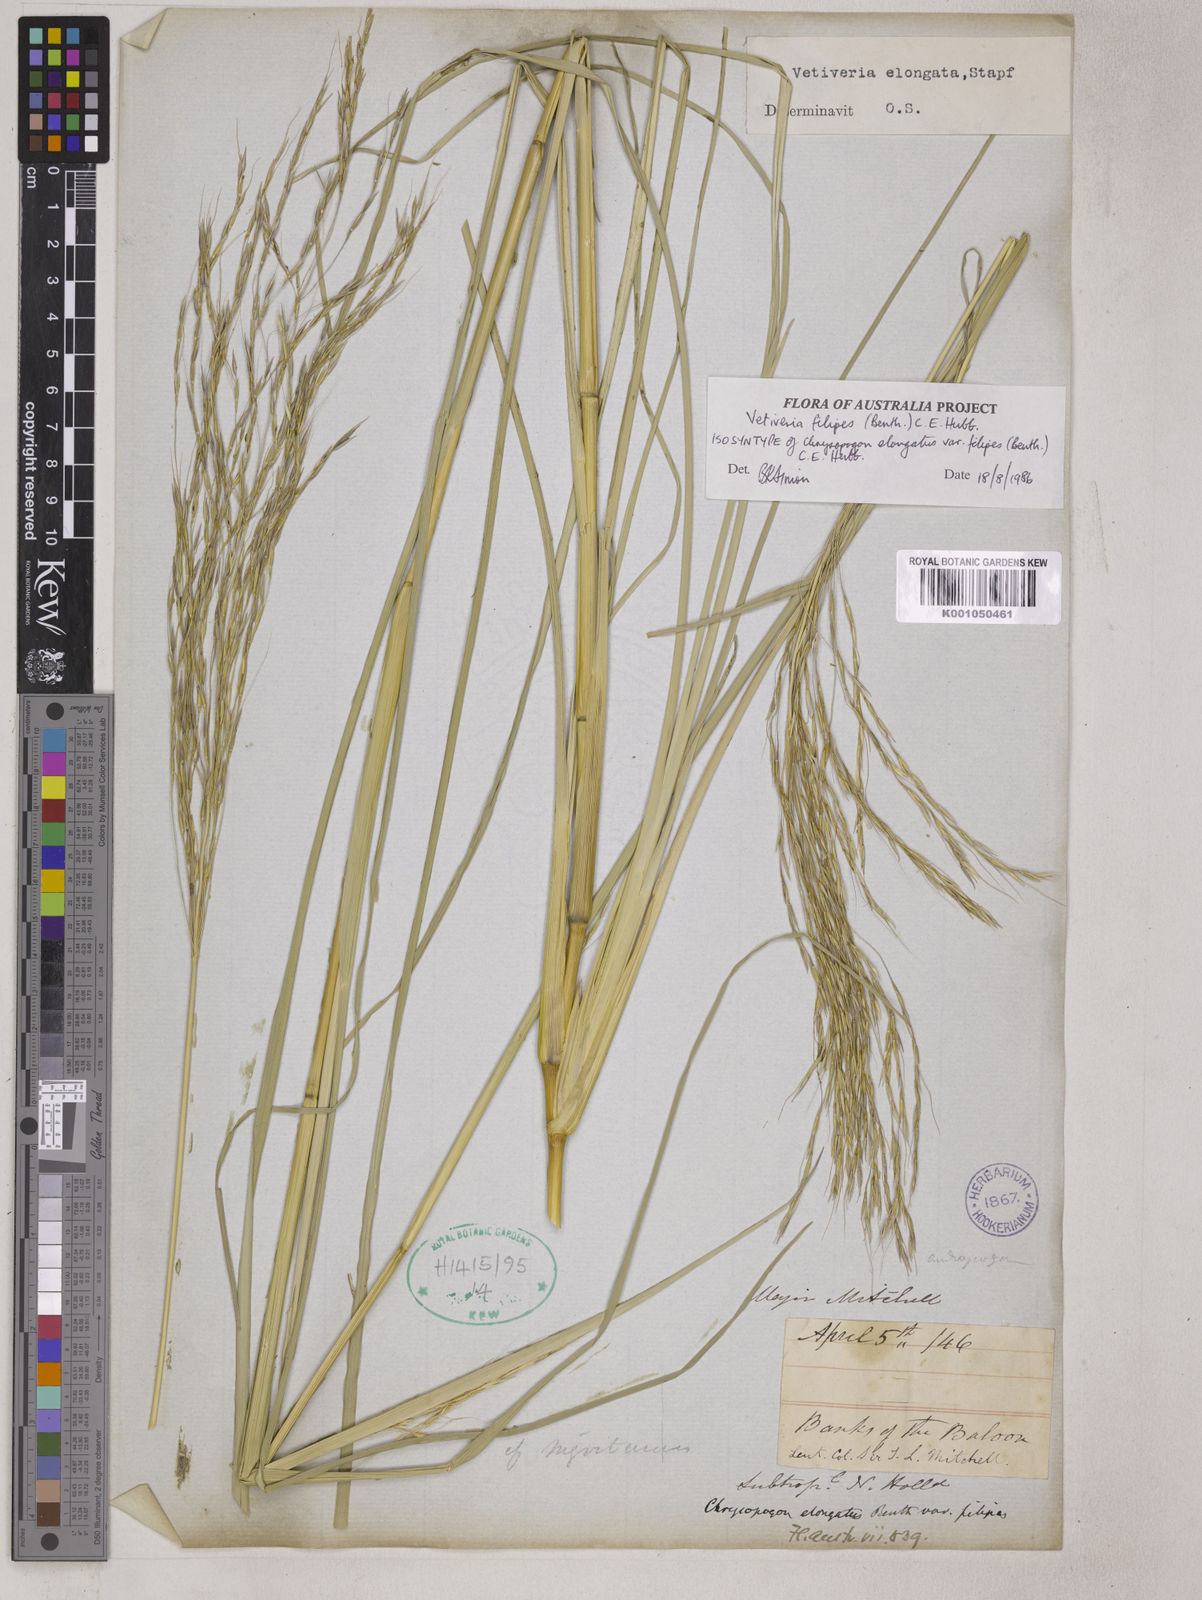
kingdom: Plantae
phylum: Tracheophyta
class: Liliopsida
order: Poales
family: Poaceae
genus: Chrysopogon
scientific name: Chrysopogon filipes
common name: Australian vetiver
